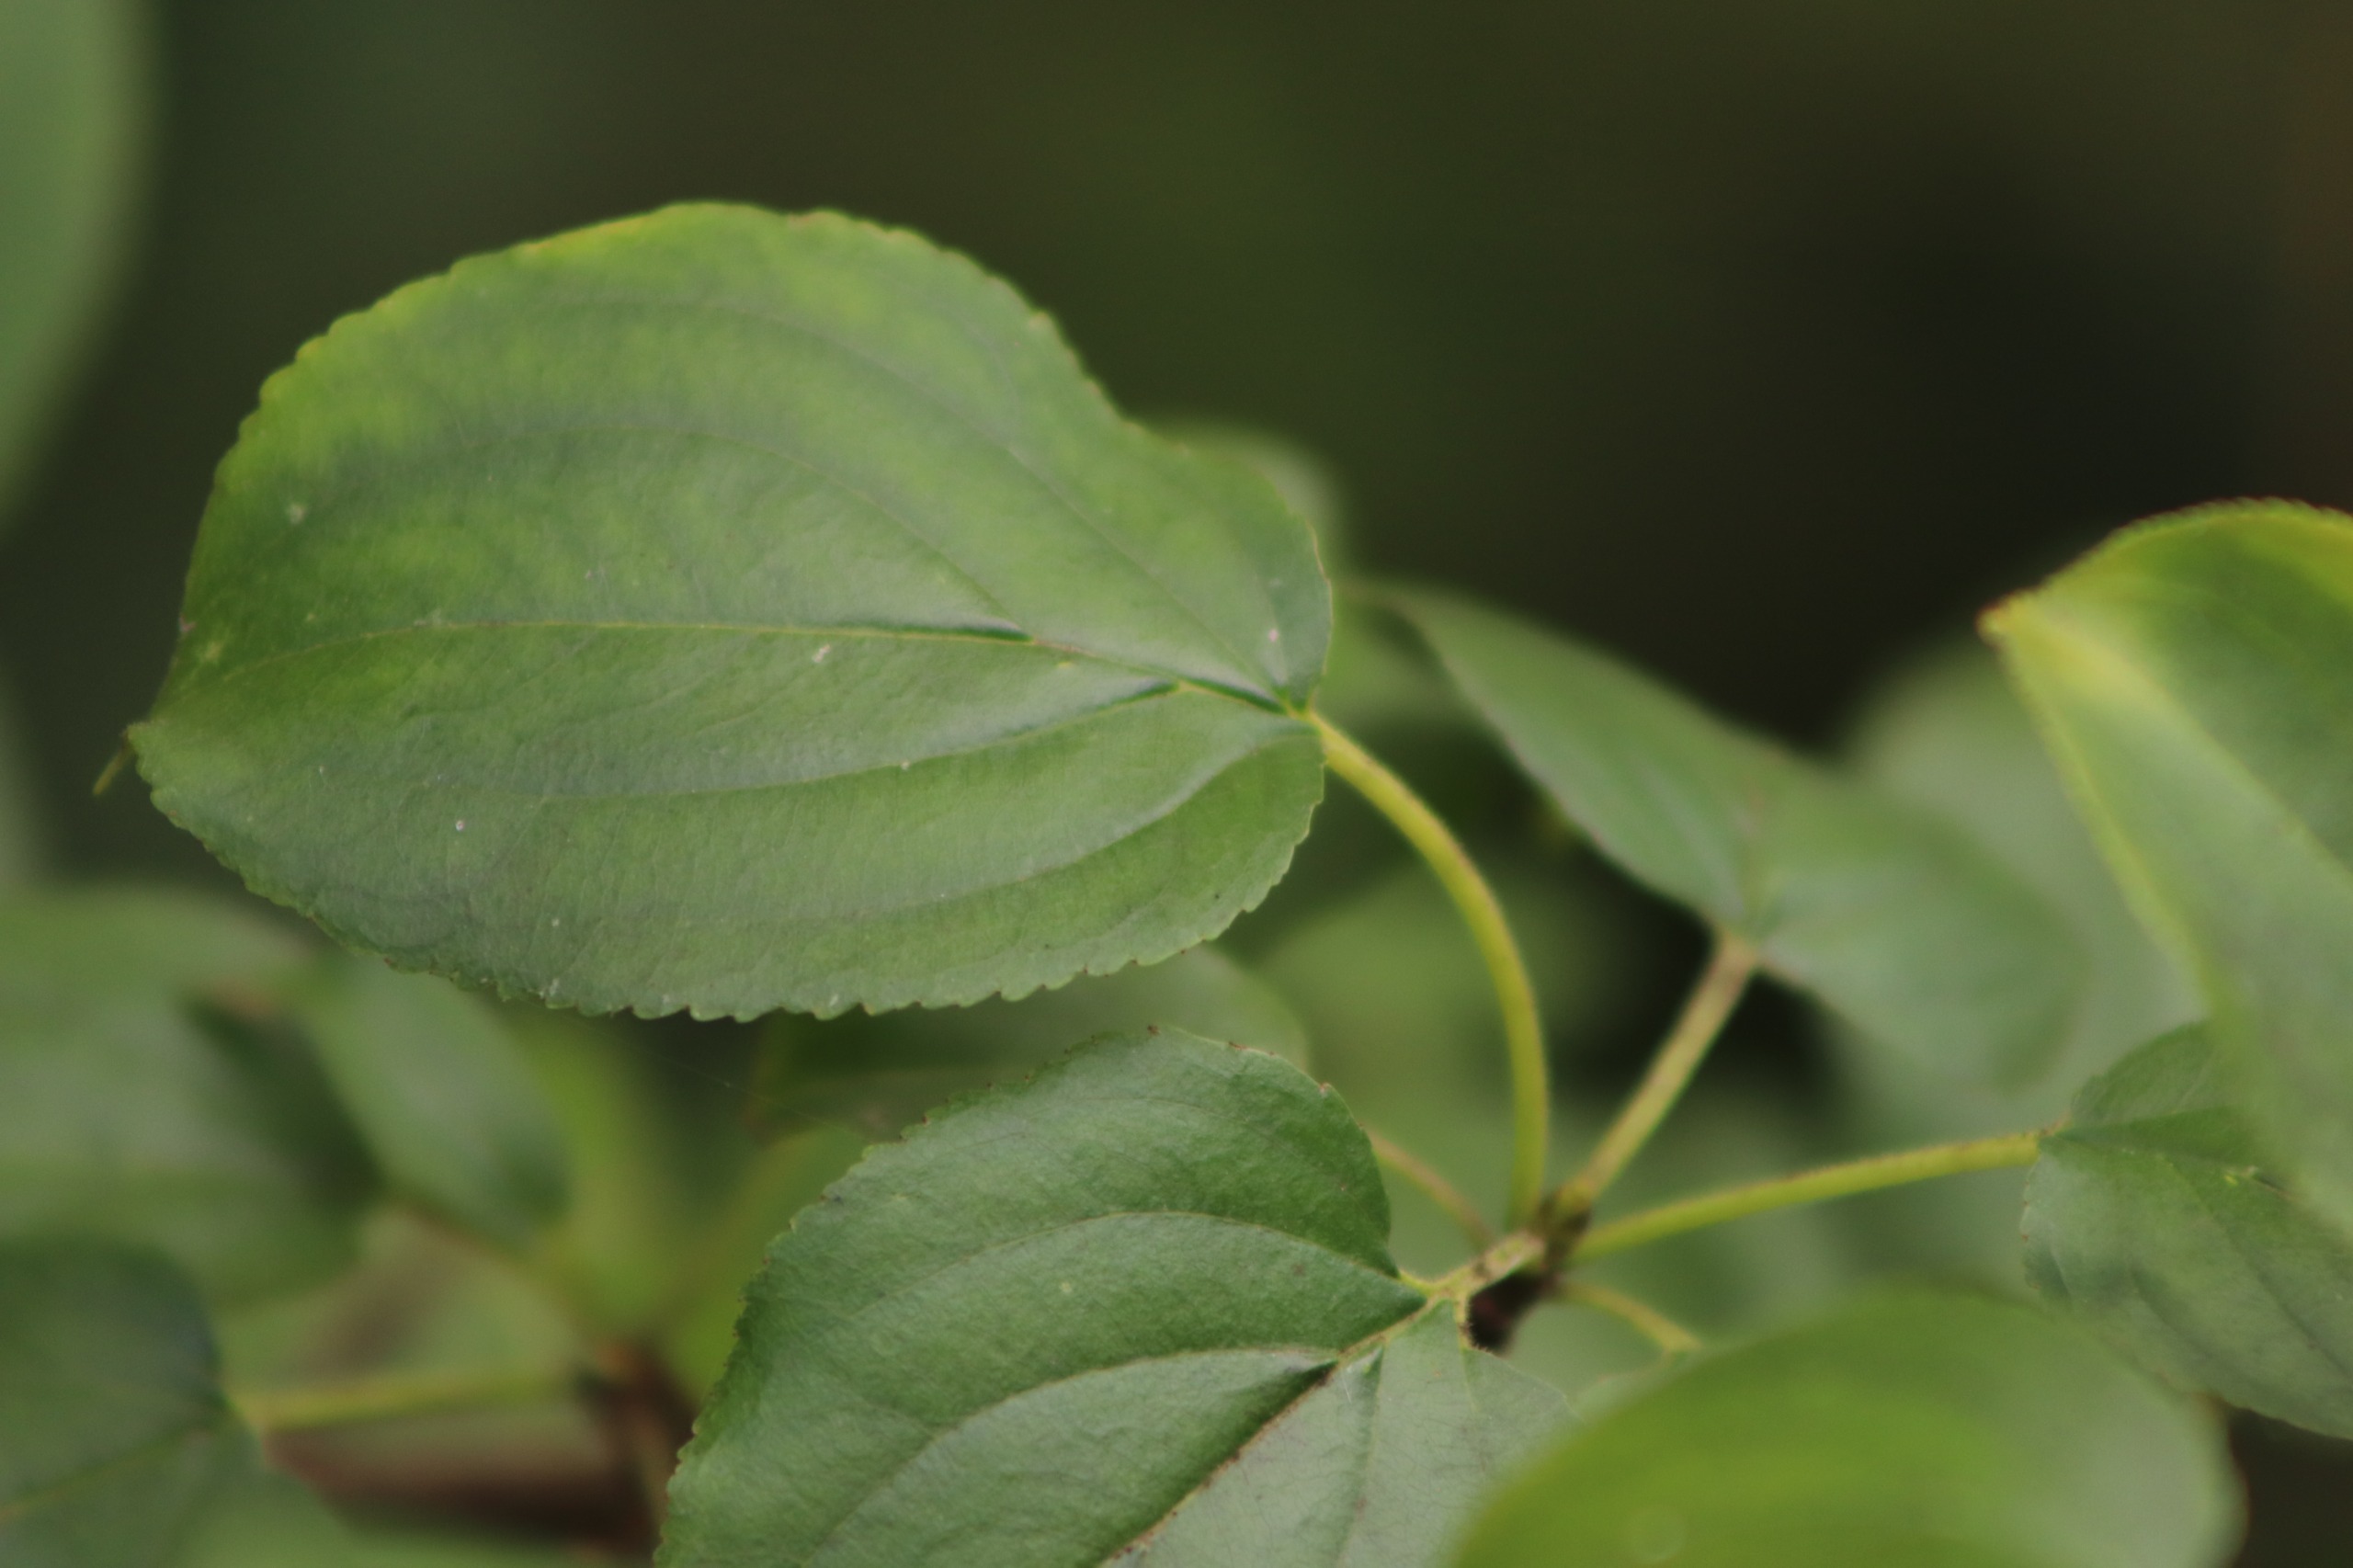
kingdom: Plantae
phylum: Tracheophyta
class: Magnoliopsida
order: Rosales
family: Rhamnaceae
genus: Rhamnus
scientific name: Rhamnus cathartica
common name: Vrietorn
